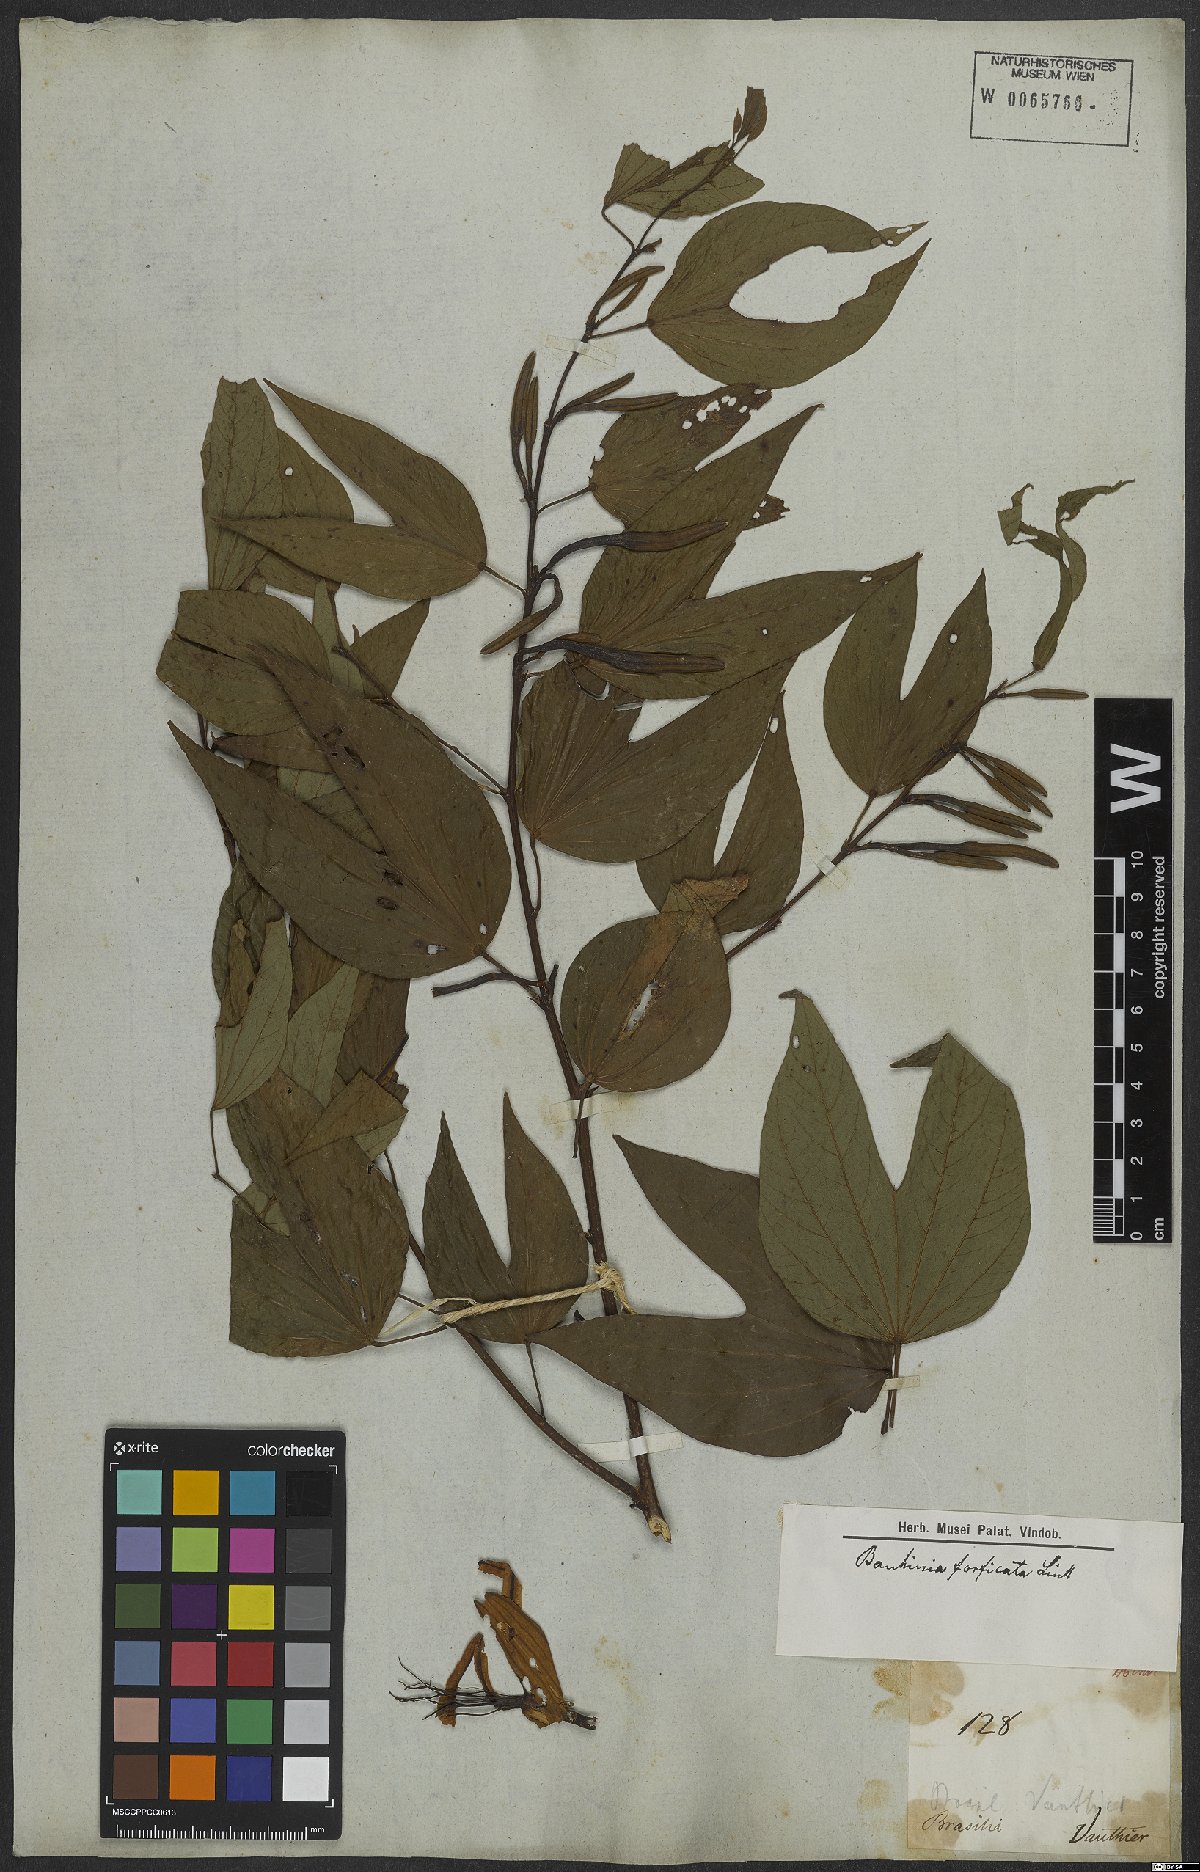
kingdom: Plantae
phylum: Tracheophyta
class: Magnoliopsida
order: Fabales
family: Fabaceae
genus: Bauhinia
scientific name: Bauhinia forficata
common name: Orchid tree
